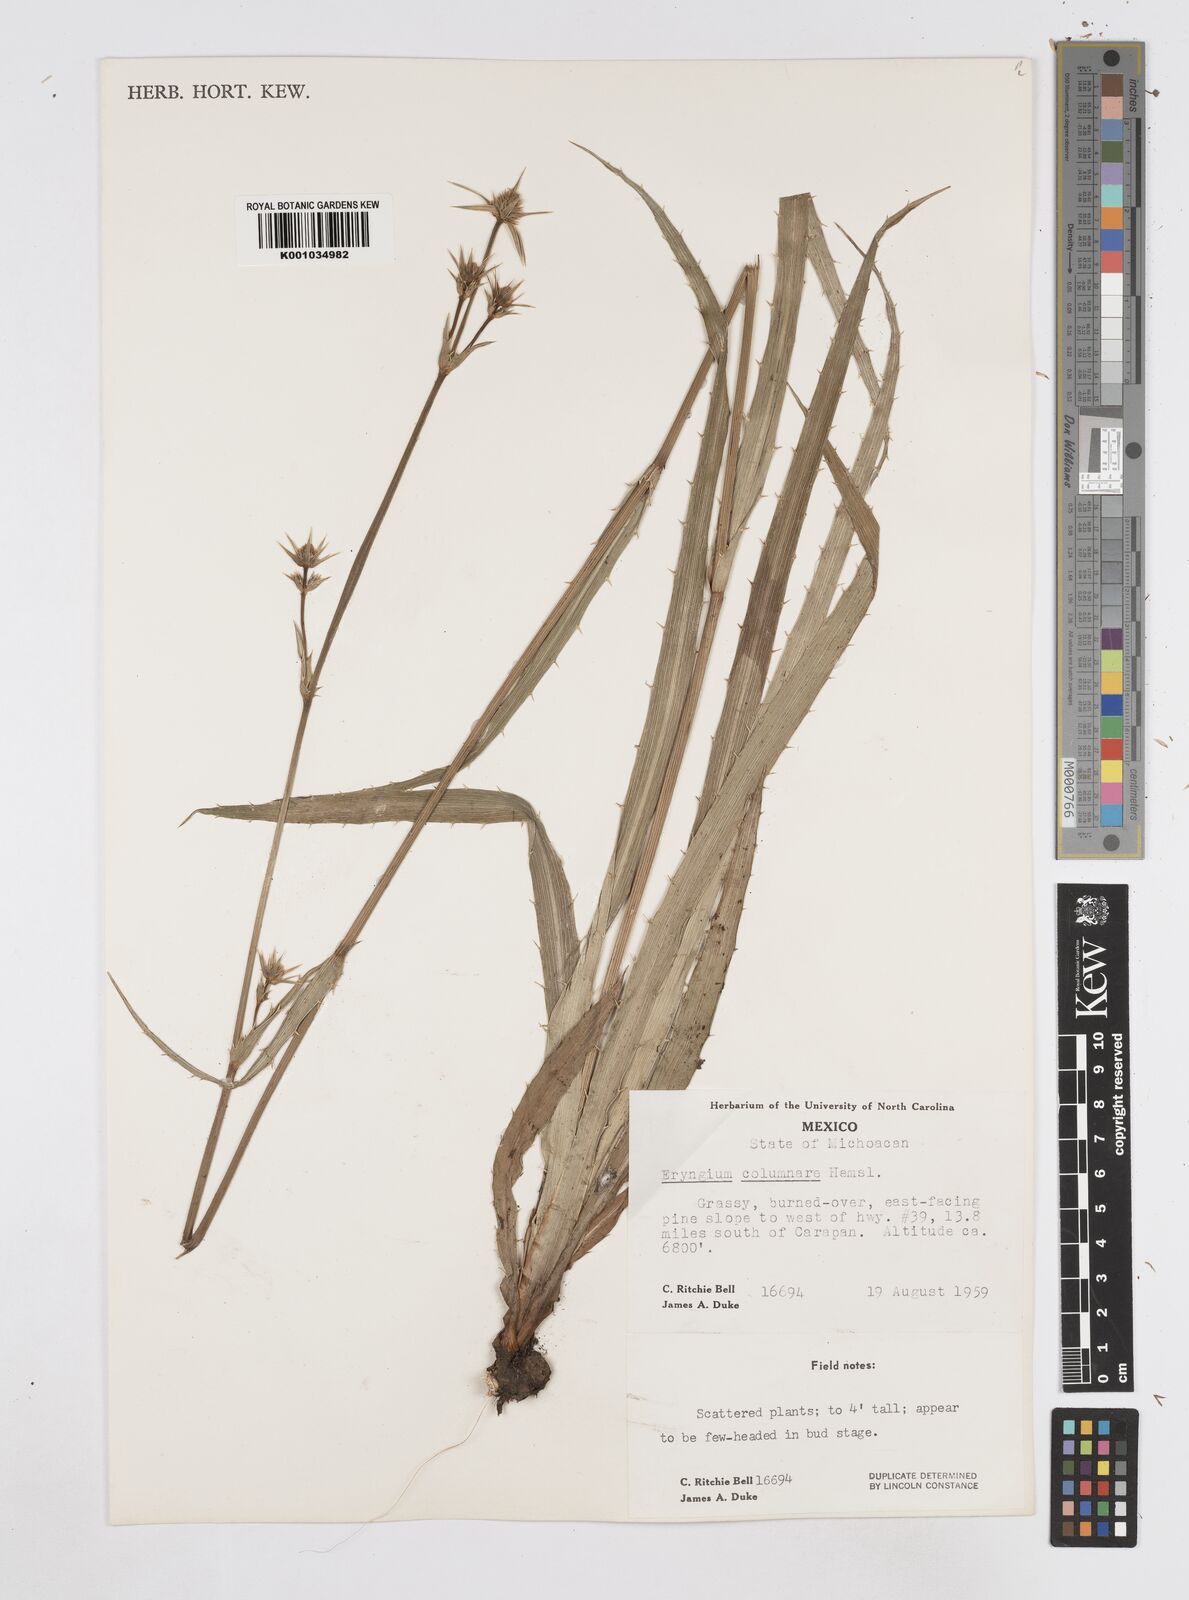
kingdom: Plantae
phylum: Tracheophyta
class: Magnoliopsida
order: Apiales
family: Apiaceae
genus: Eryngium
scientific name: Eryngium columnare
